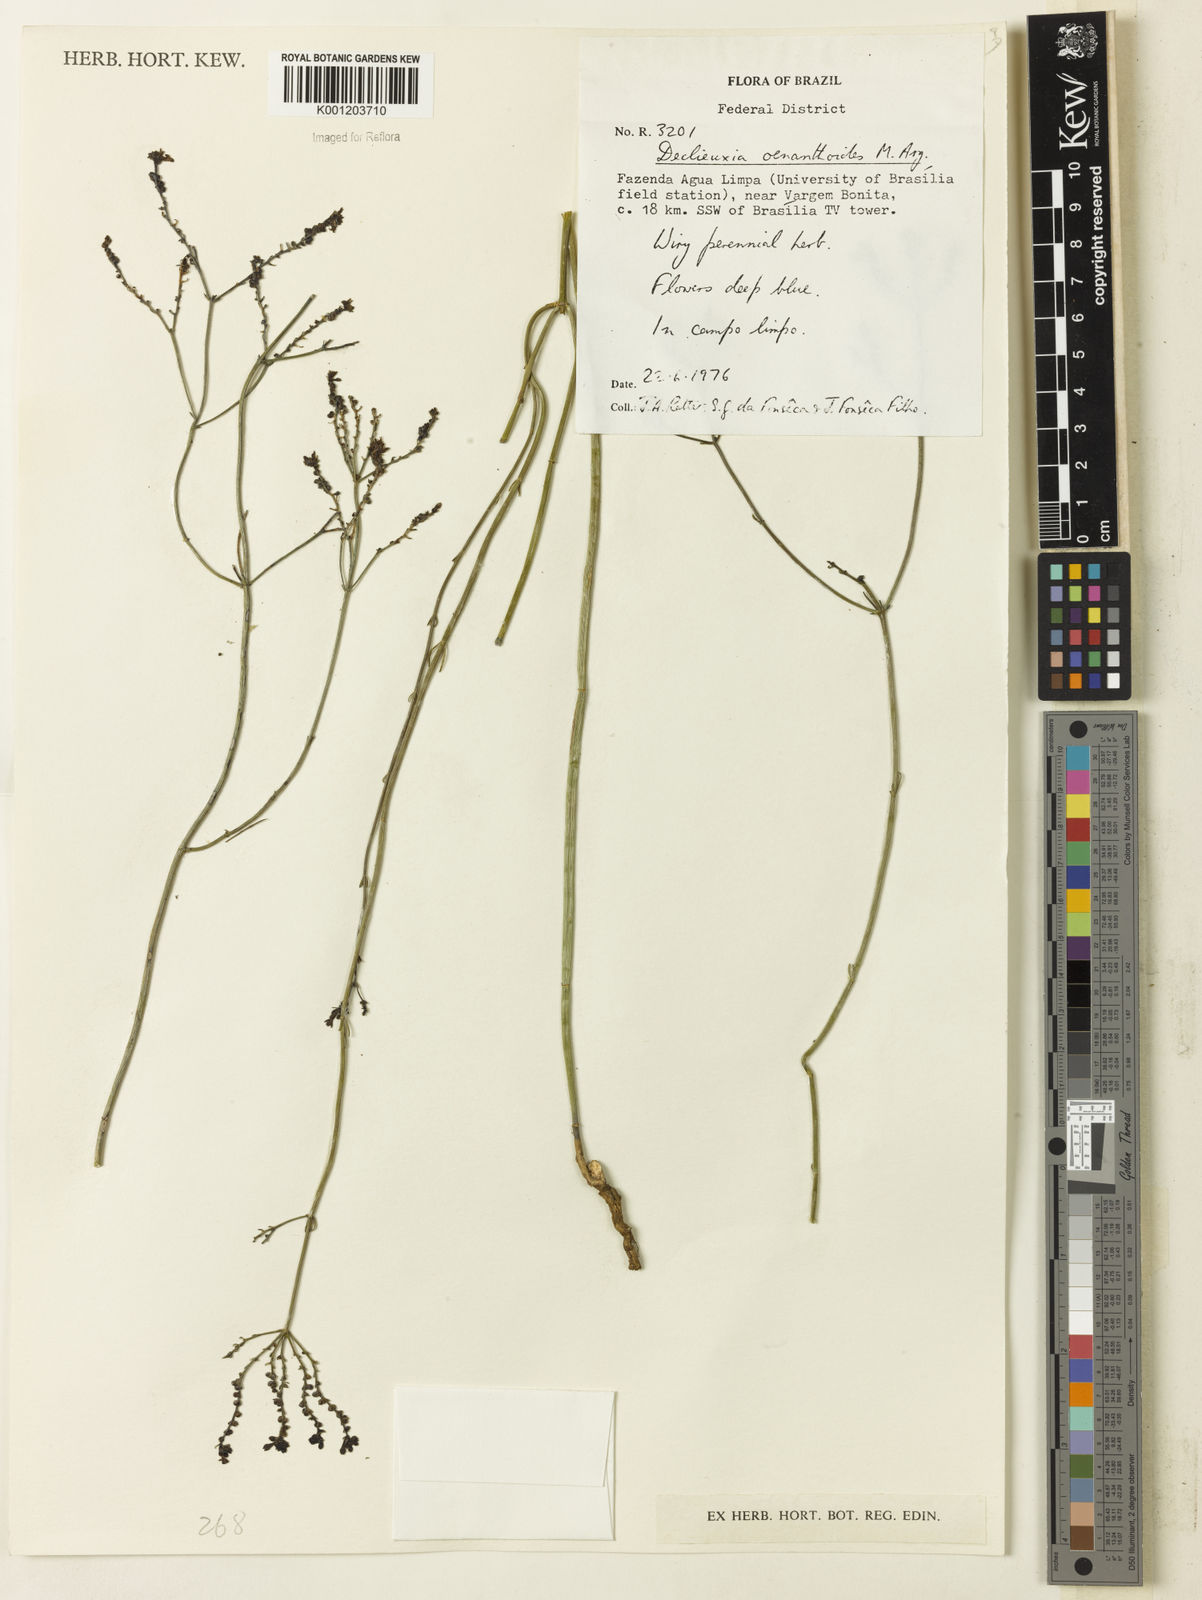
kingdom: Plantae
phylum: Tracheophyta
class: Magnoliopsida
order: Gentianales
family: Rubiaceae
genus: Declieuxia
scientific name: Declieuxia
